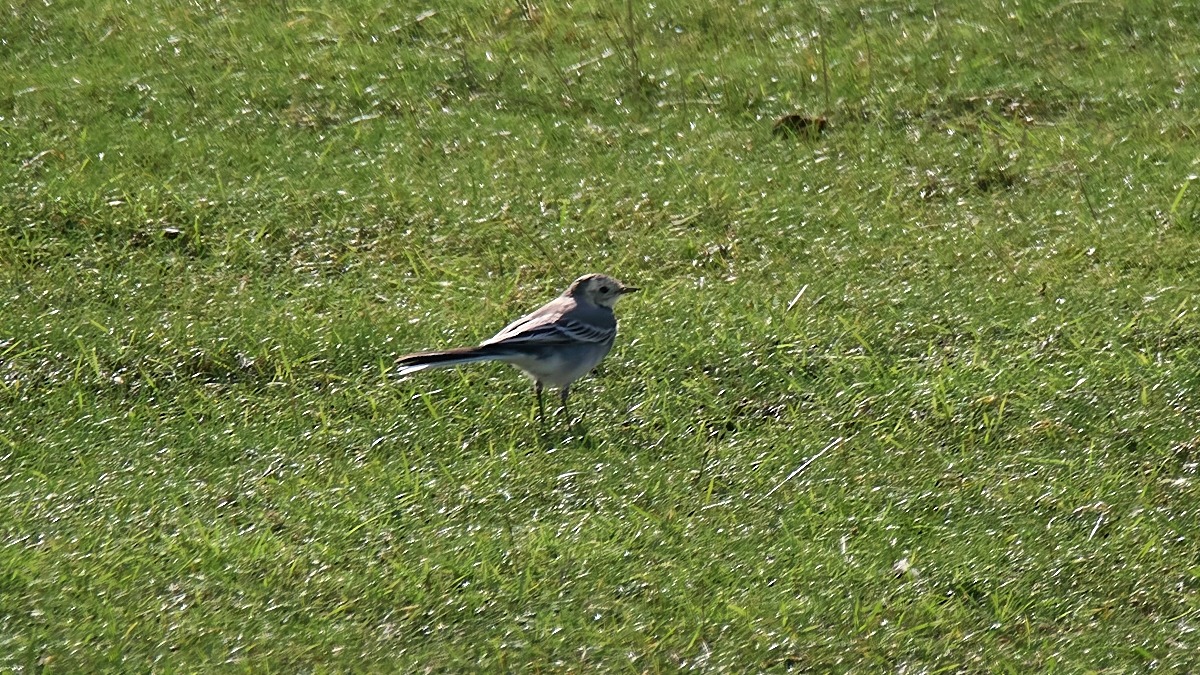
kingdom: Animalia
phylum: Chordata
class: Aves
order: Passeriformes
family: Motacillidae
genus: Motacilla
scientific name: Motacilla alba
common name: Hvid vipstjert
